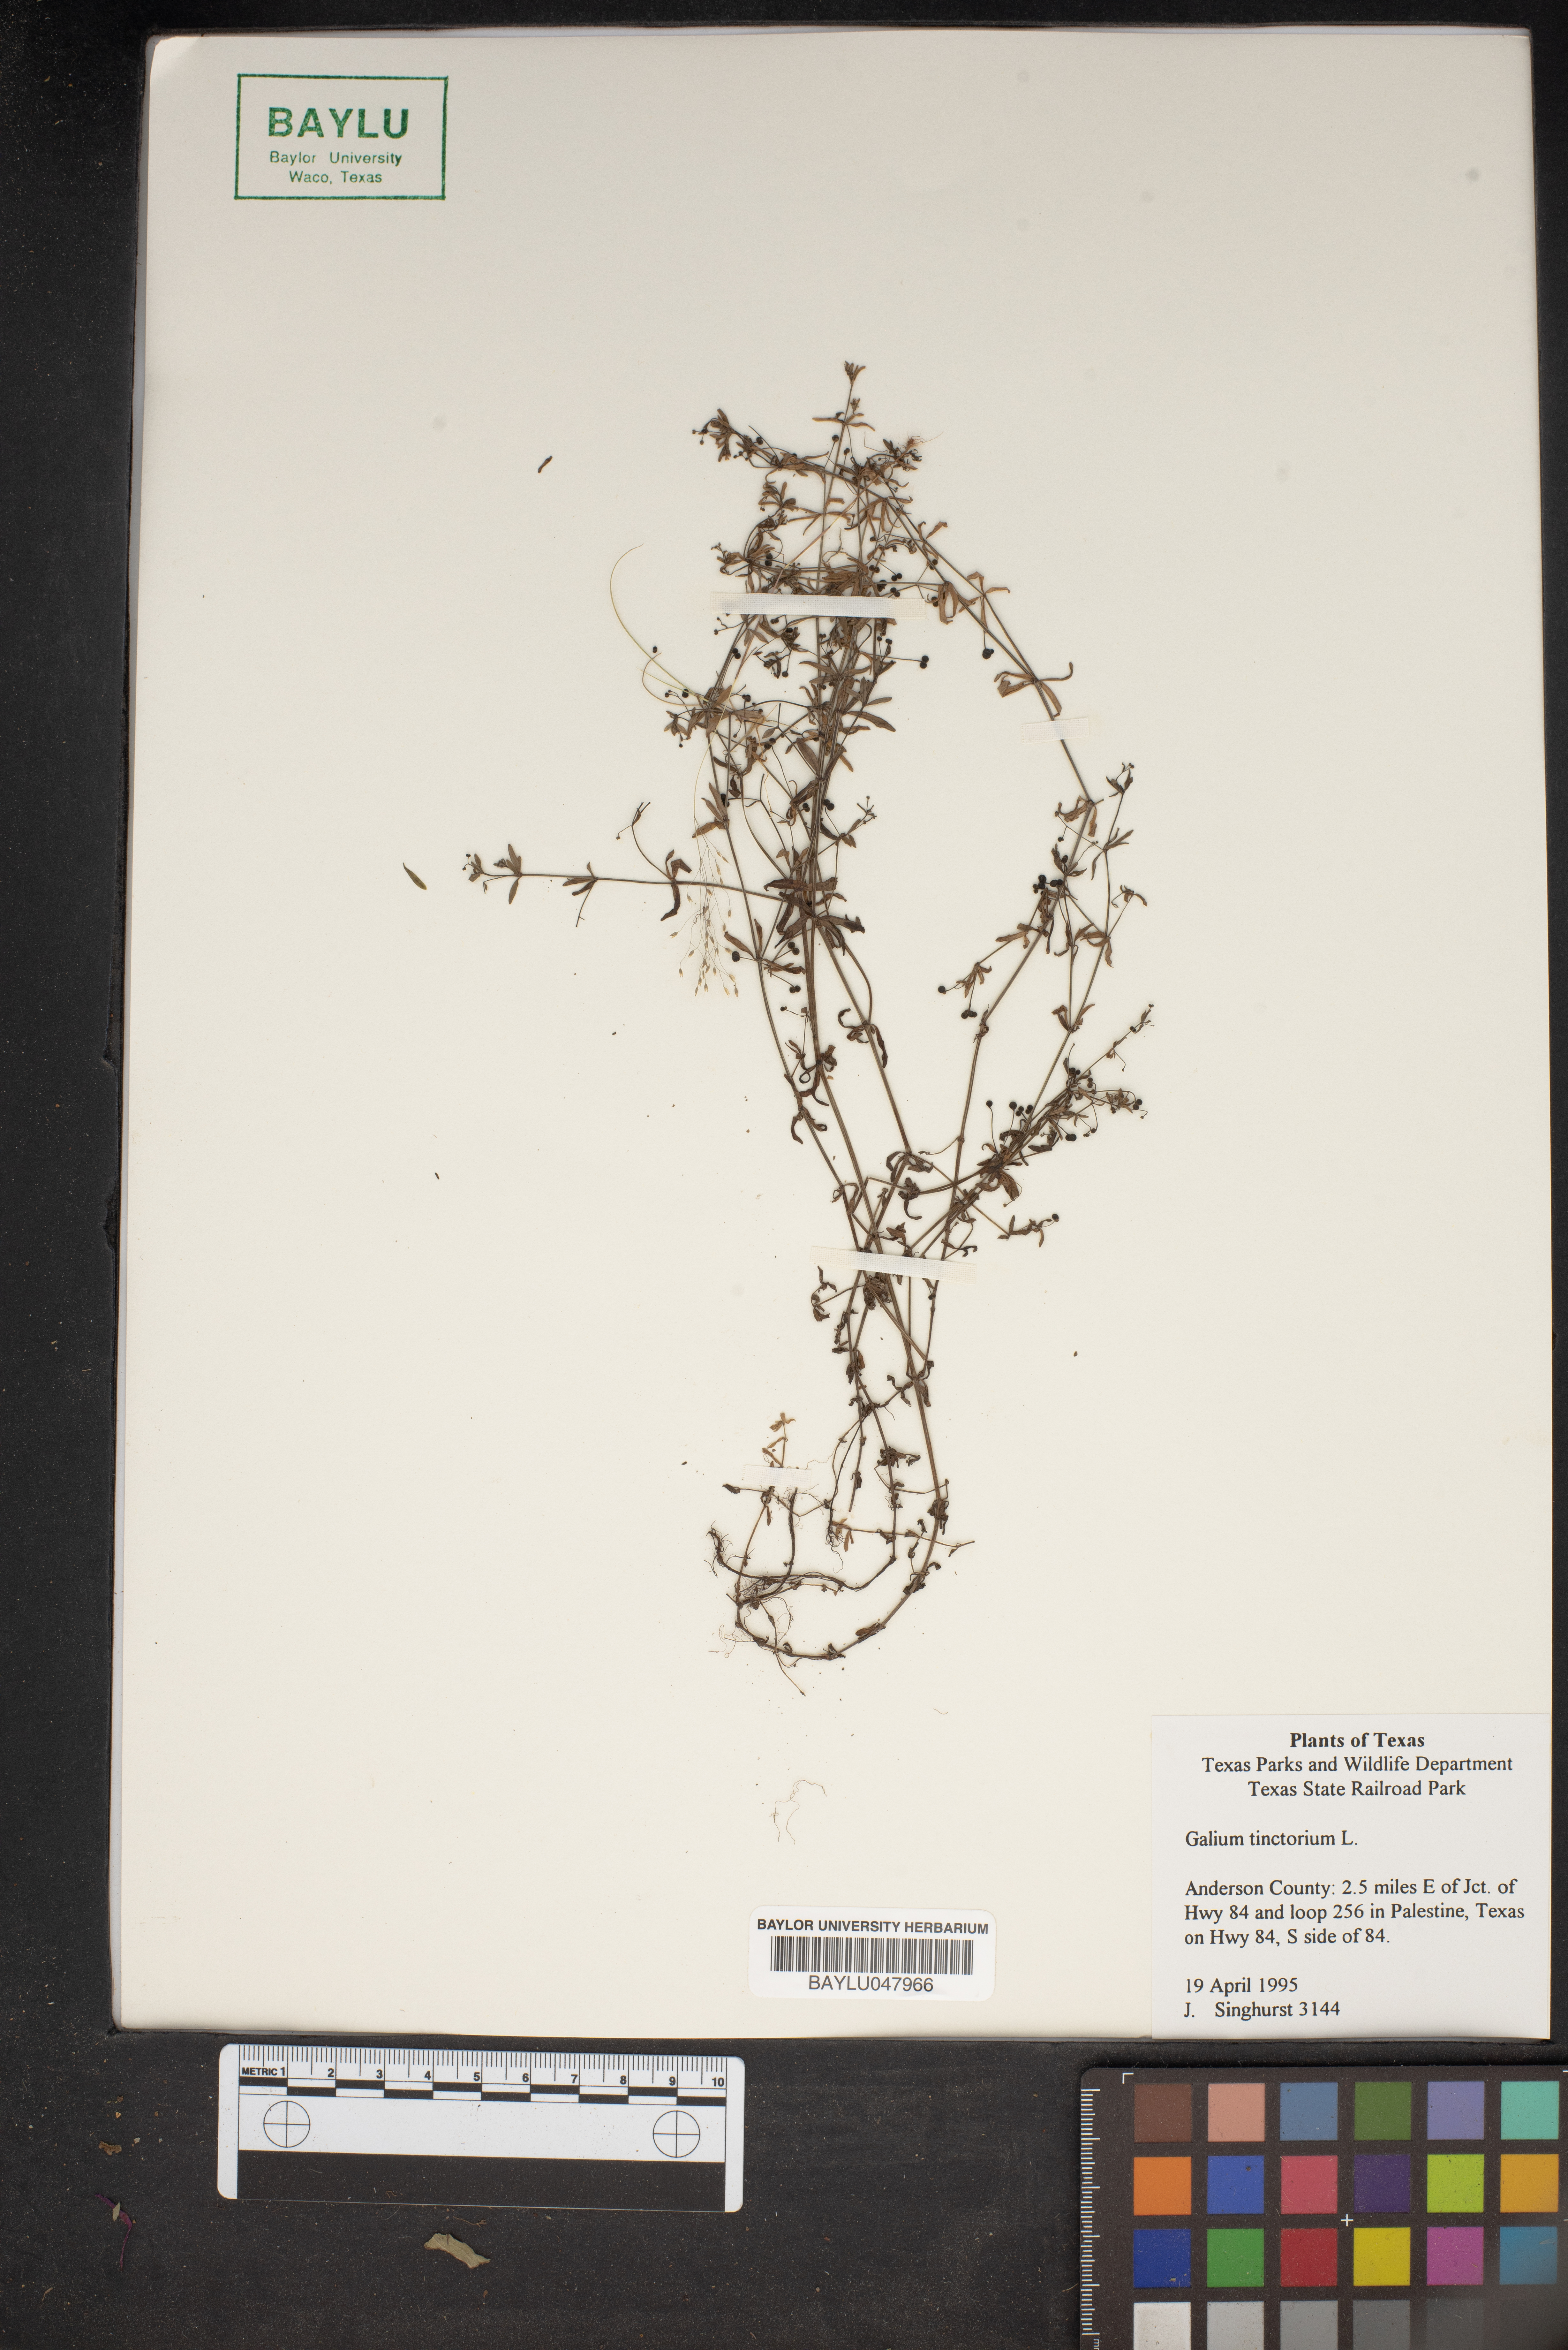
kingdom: Plantae
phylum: Tracheophyta
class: Magnoliopsida
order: Gentianales
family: Rubiaceae
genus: Asperula
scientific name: Asperula tinctoria
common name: Dyer's woodruff
